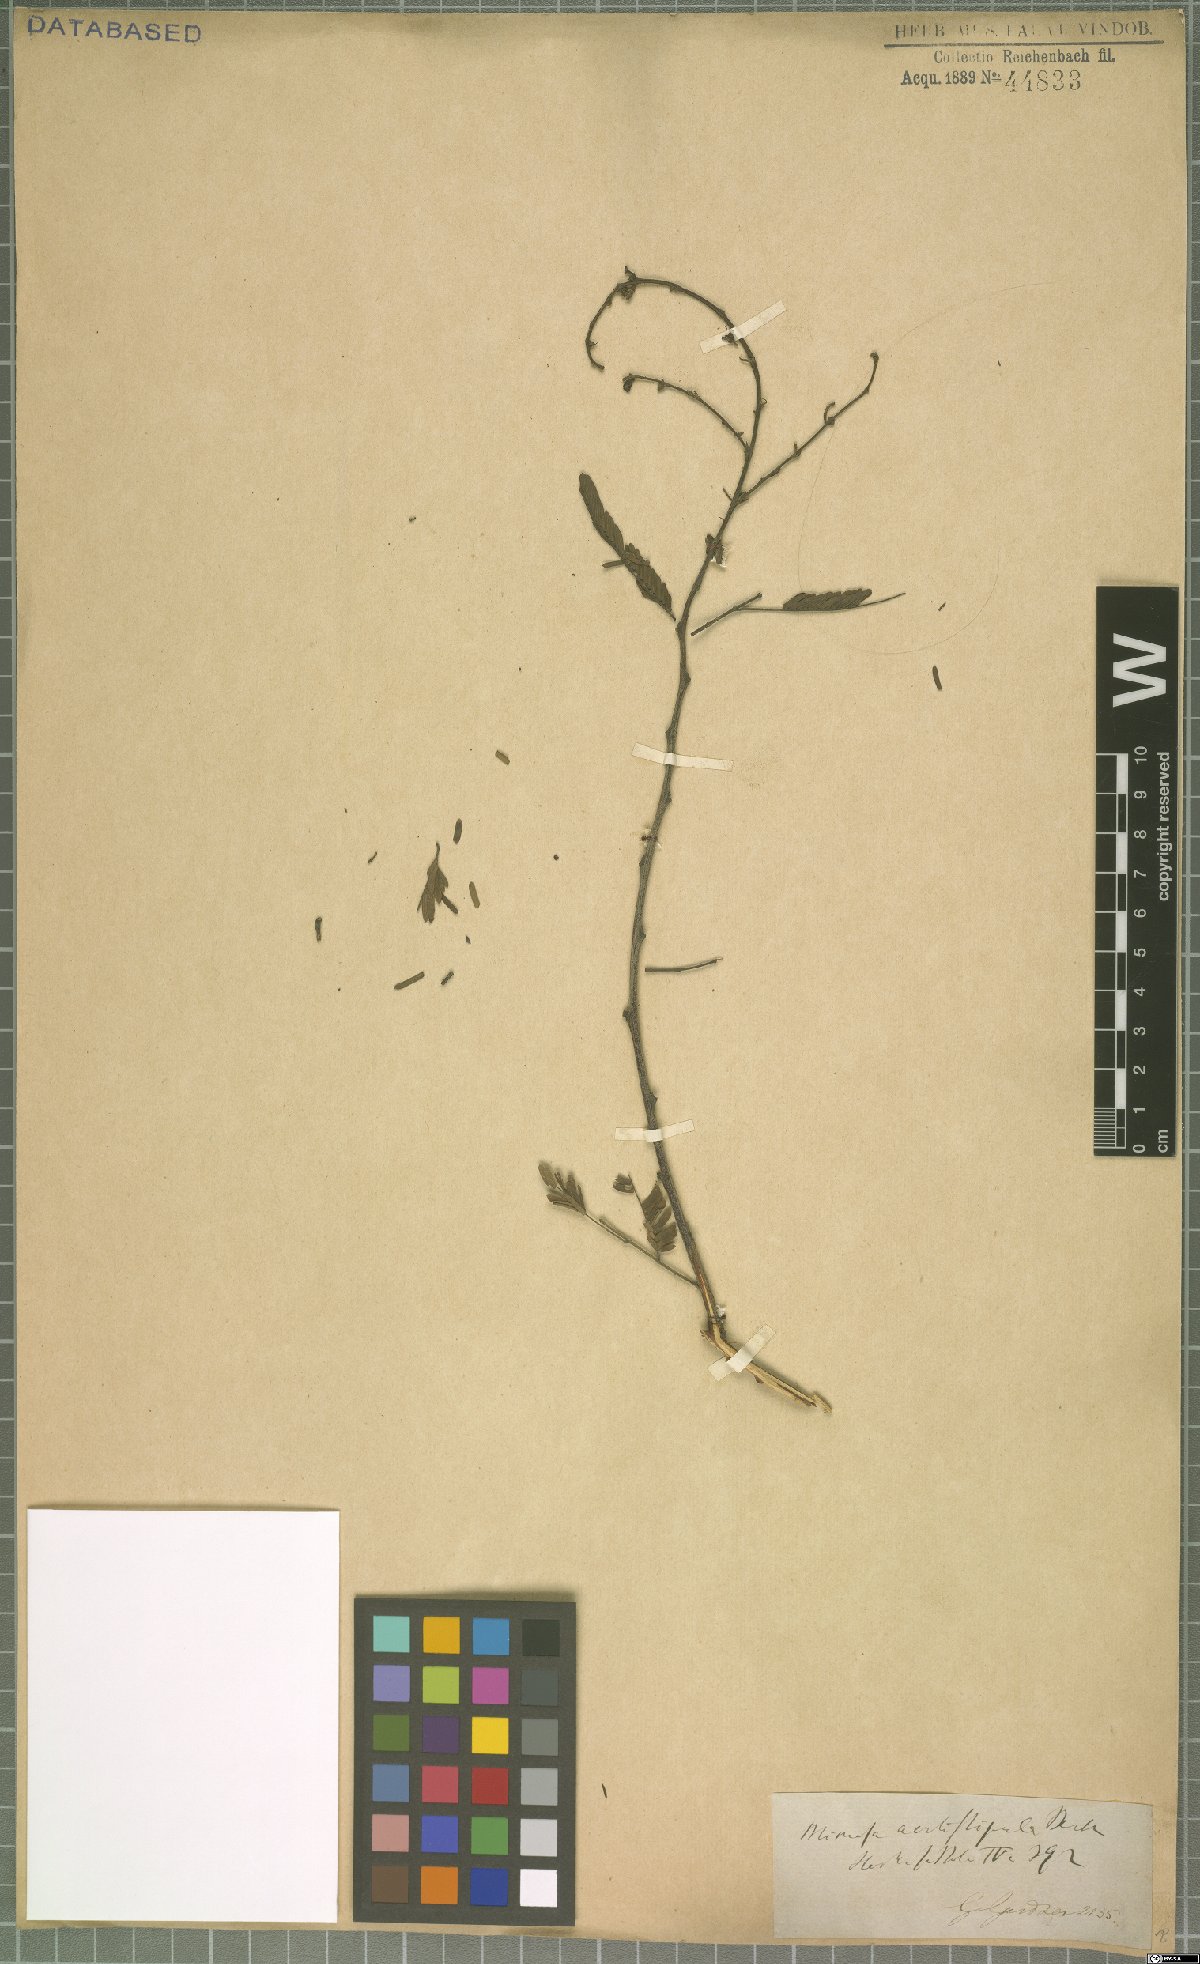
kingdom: Plantae
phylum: Tracheophyta
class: Magnoliopsida
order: Fabales
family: Fabaceae
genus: Mimosa
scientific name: Mimosa acutistipula
